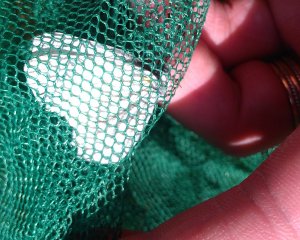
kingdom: Animalia
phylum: Arthropoda
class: Insecta
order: Lepidoptera
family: Pieridae
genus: Pieris
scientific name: Pieris oleracea
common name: Mustard White
